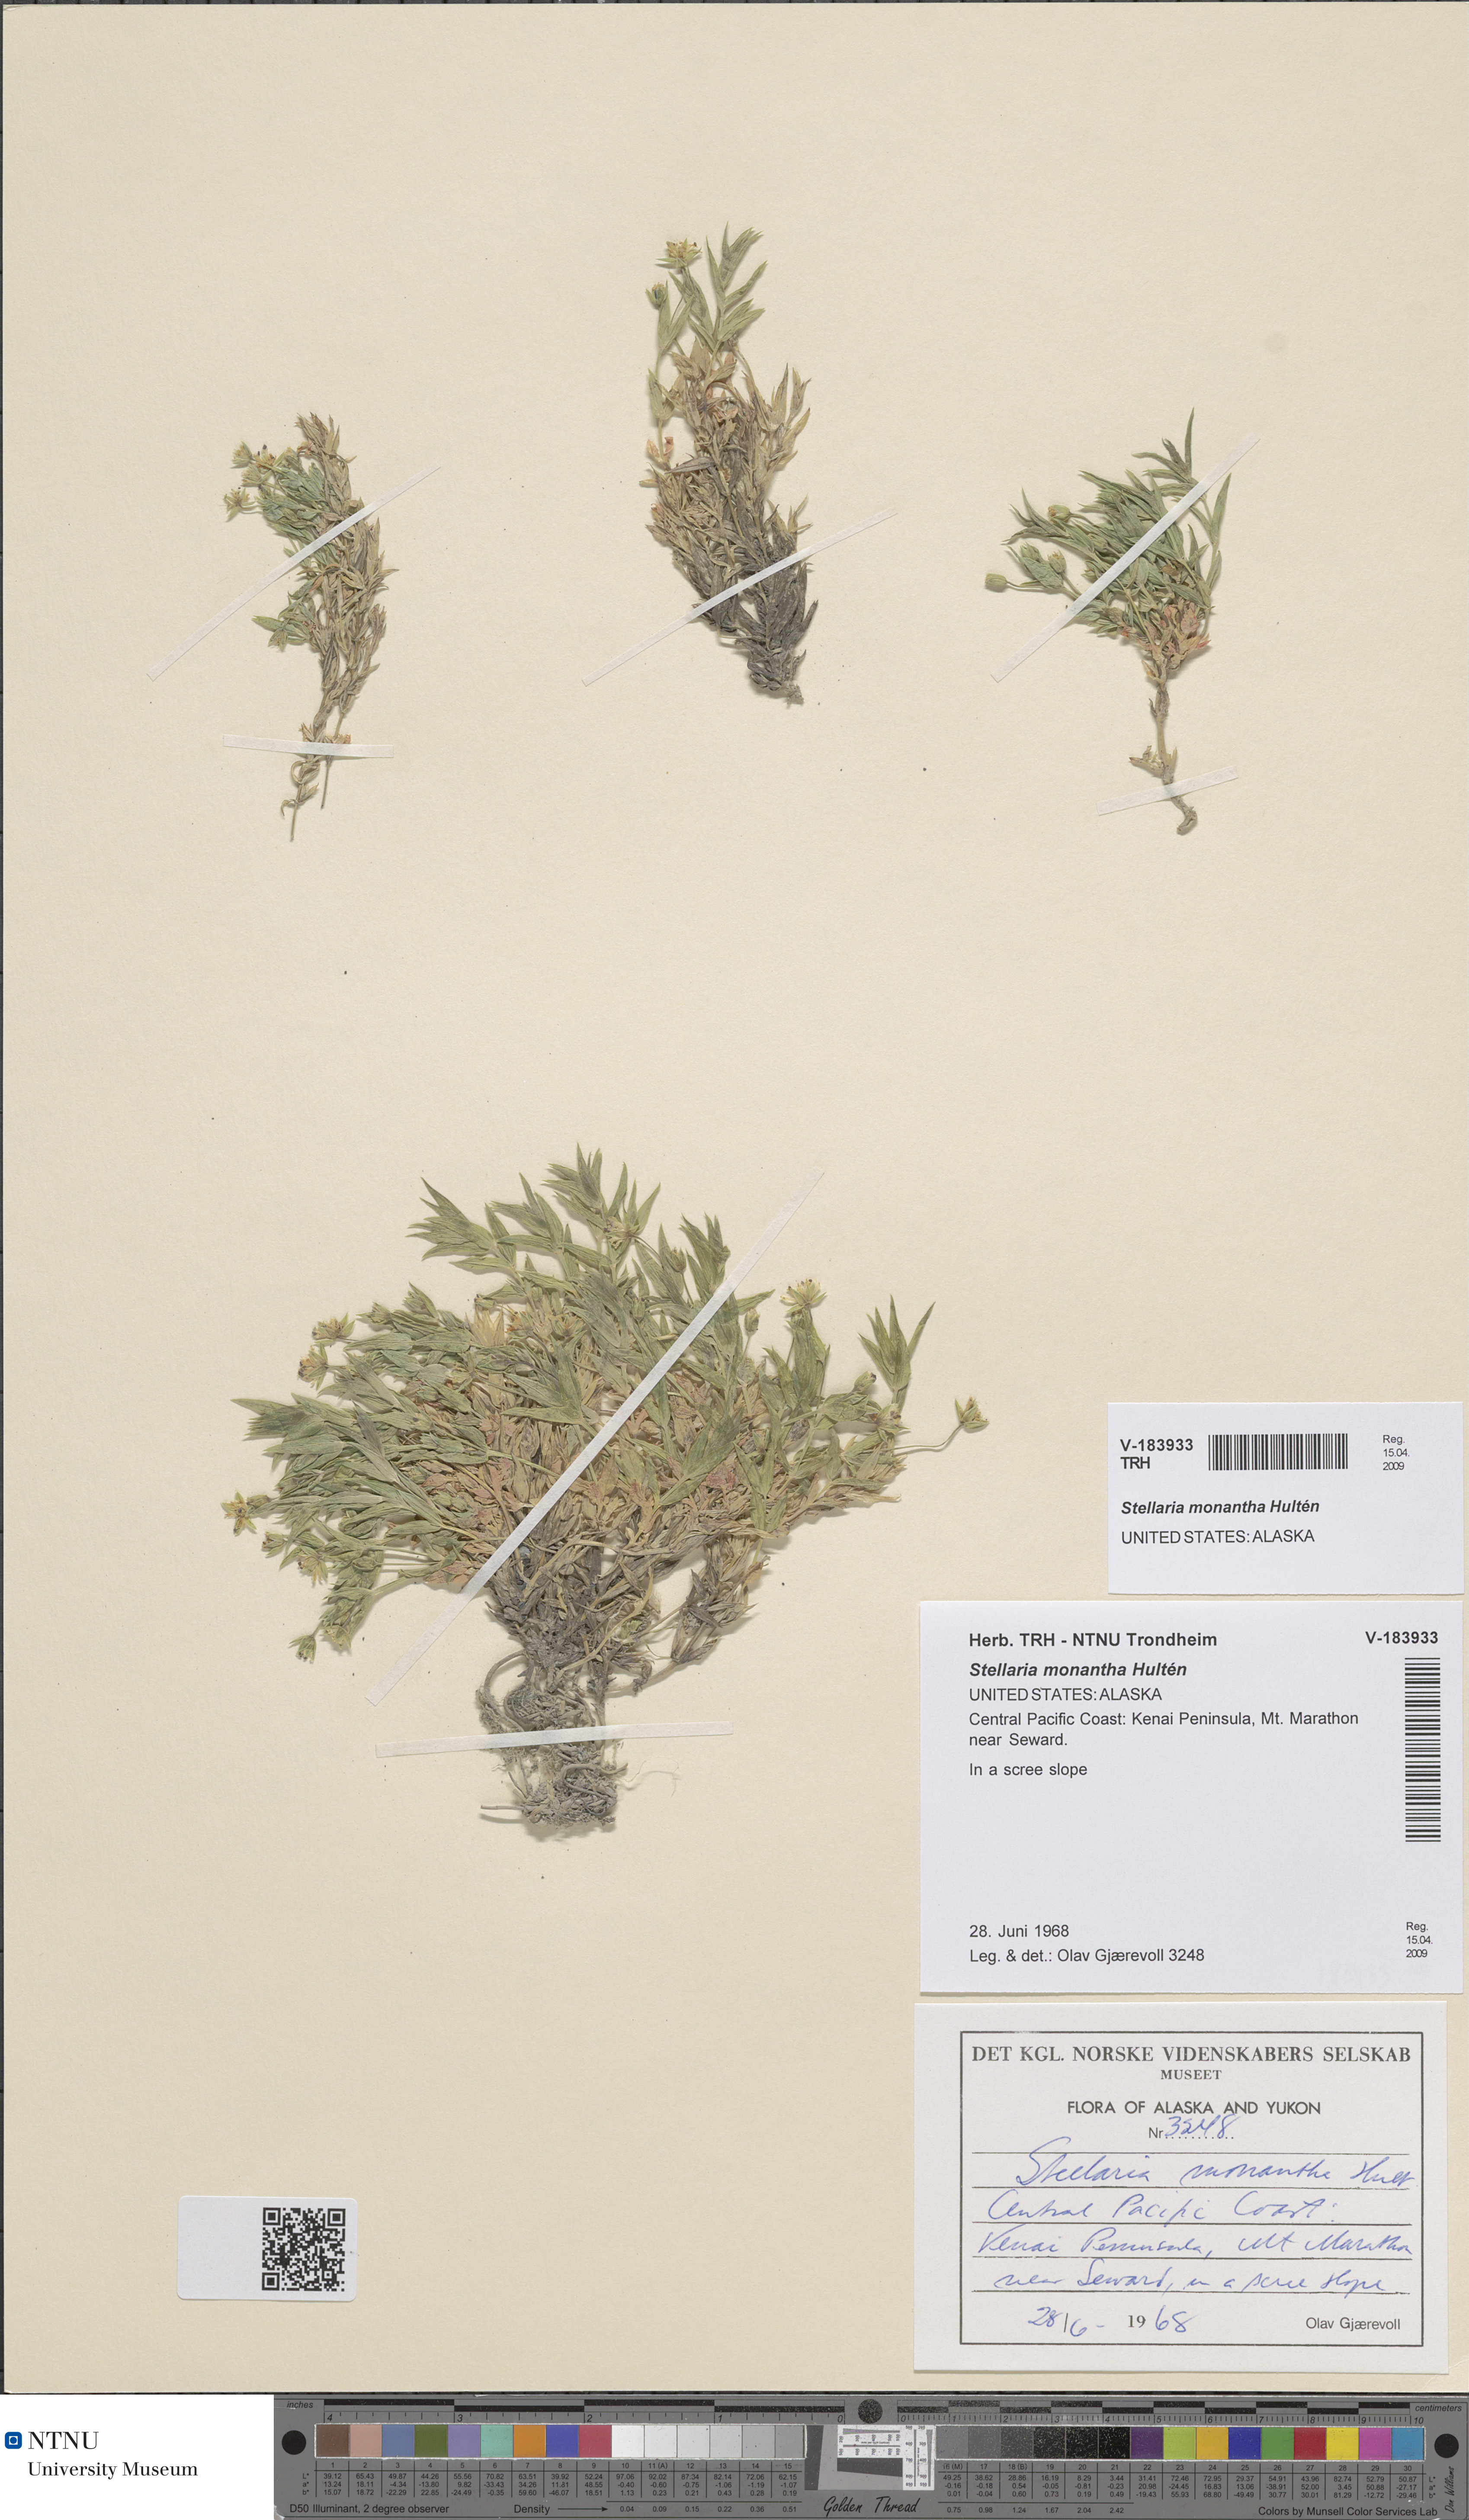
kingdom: Plantae
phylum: Tracheophyta
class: Magnoliopsida
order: Caryophyllales
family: Caryophyllaceae
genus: Stellaria
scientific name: Stellaria longipes
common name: Goldie's starwort
